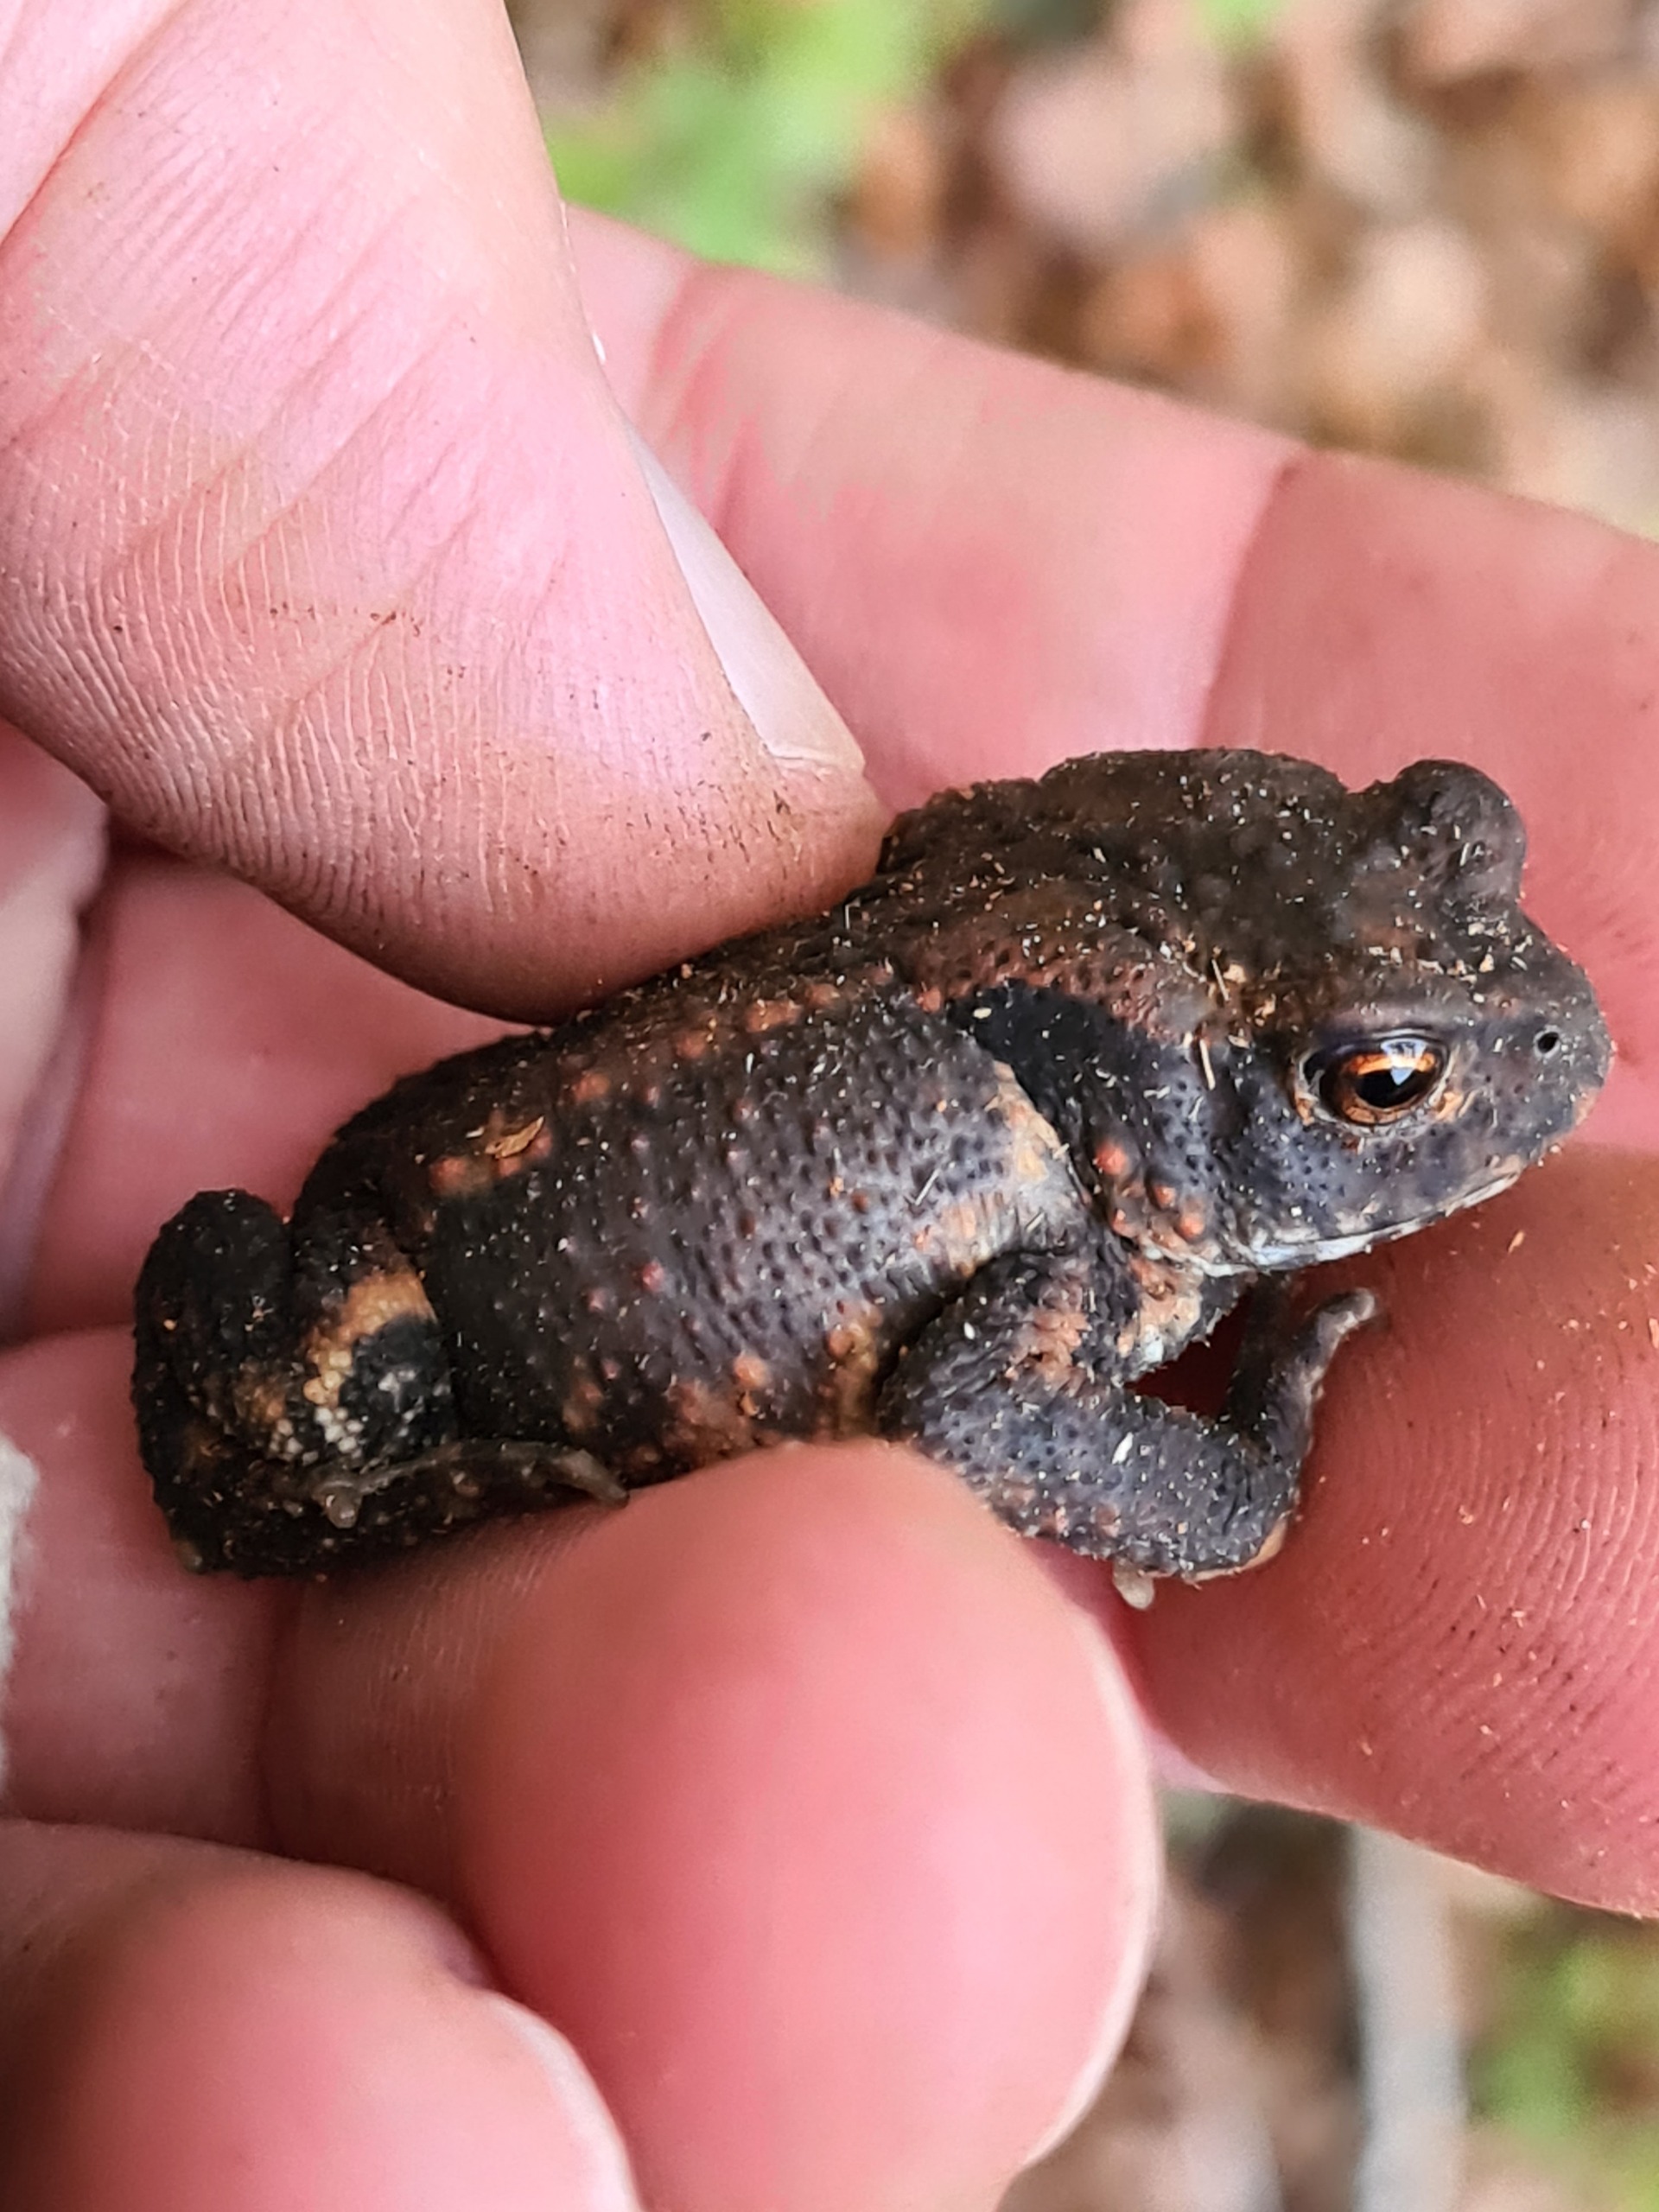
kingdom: Animalia
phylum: Chordata
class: Amphibia
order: Anura
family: Bufonidae
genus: Bufo
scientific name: Bufo bufo
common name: Skrubtudse
